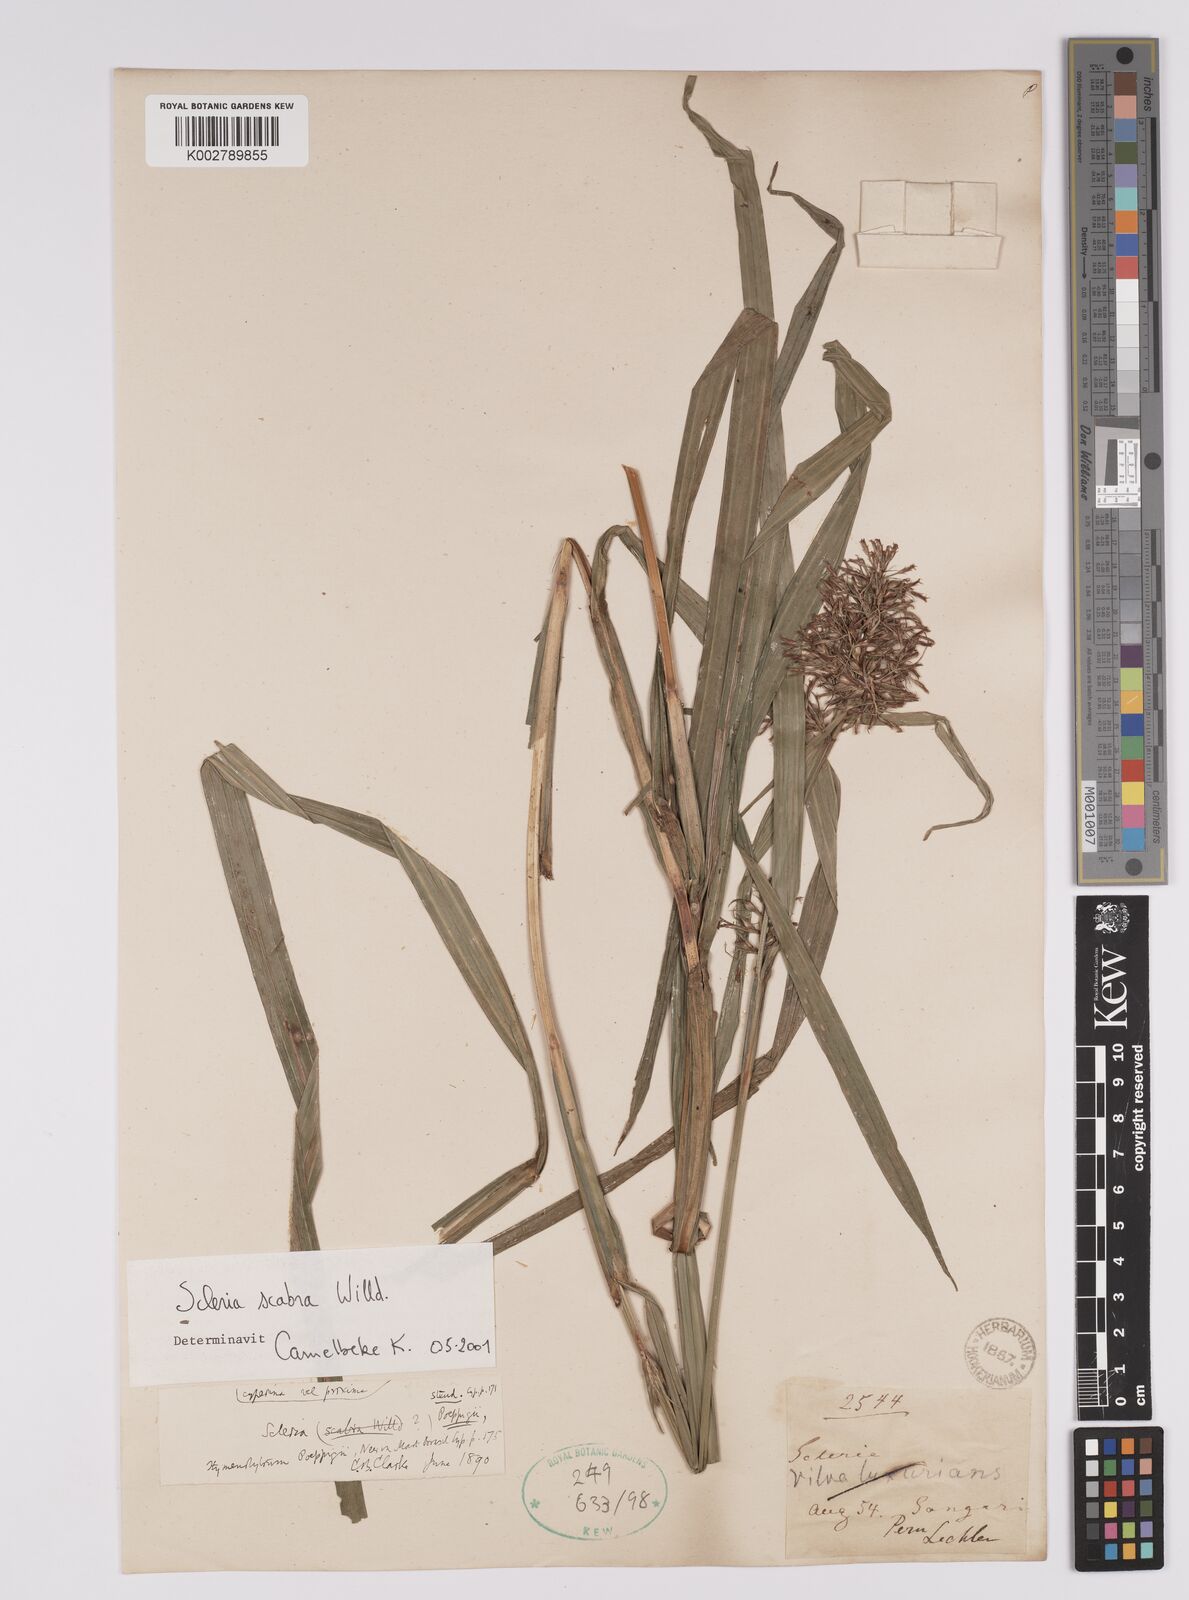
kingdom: Plantae
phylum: Tracheophyta
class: Liliopsida
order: Poales
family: Cyperaceae
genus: Scleria
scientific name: Scleria scabra
